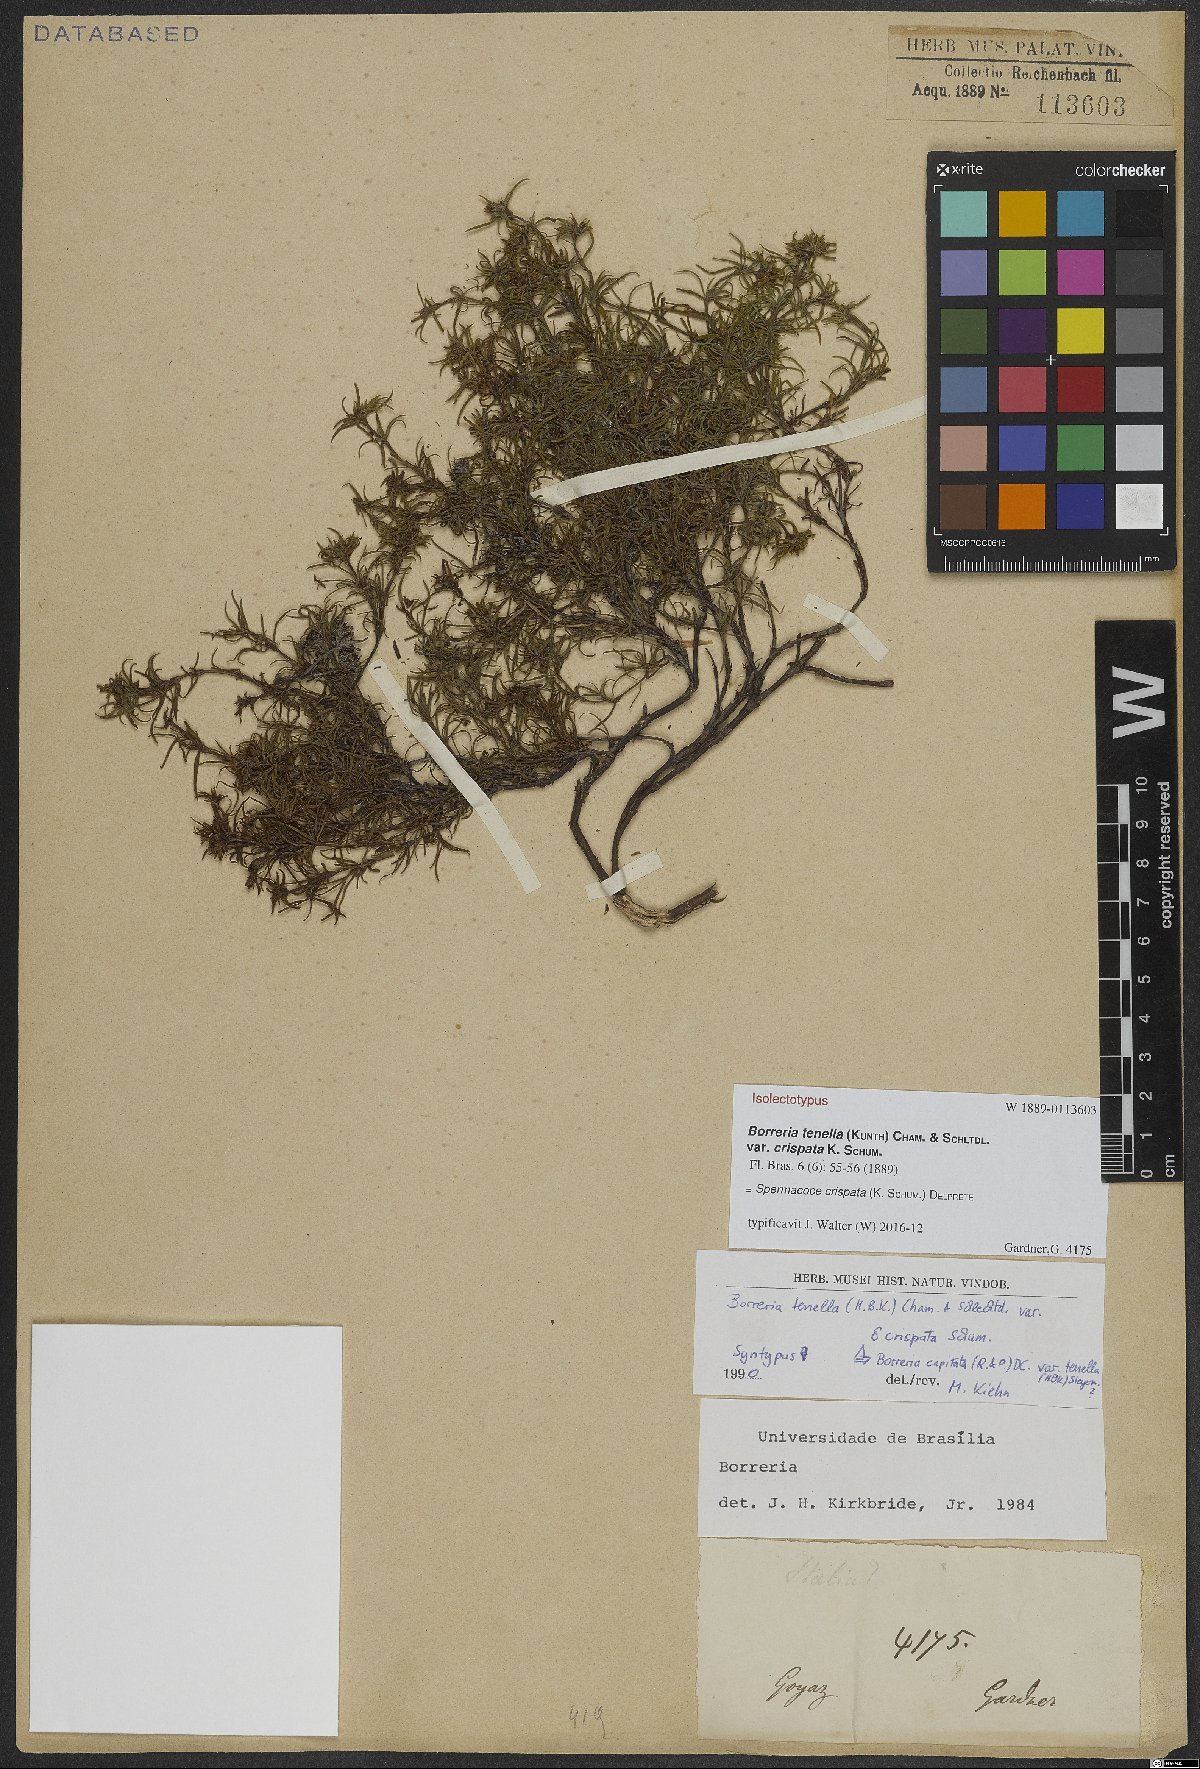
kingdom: Plantae
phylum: Tracheophyta
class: Magnoliopsida
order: Gentianales
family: Rubiaceae
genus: Spermacoce
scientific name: Spermacoce crispata
